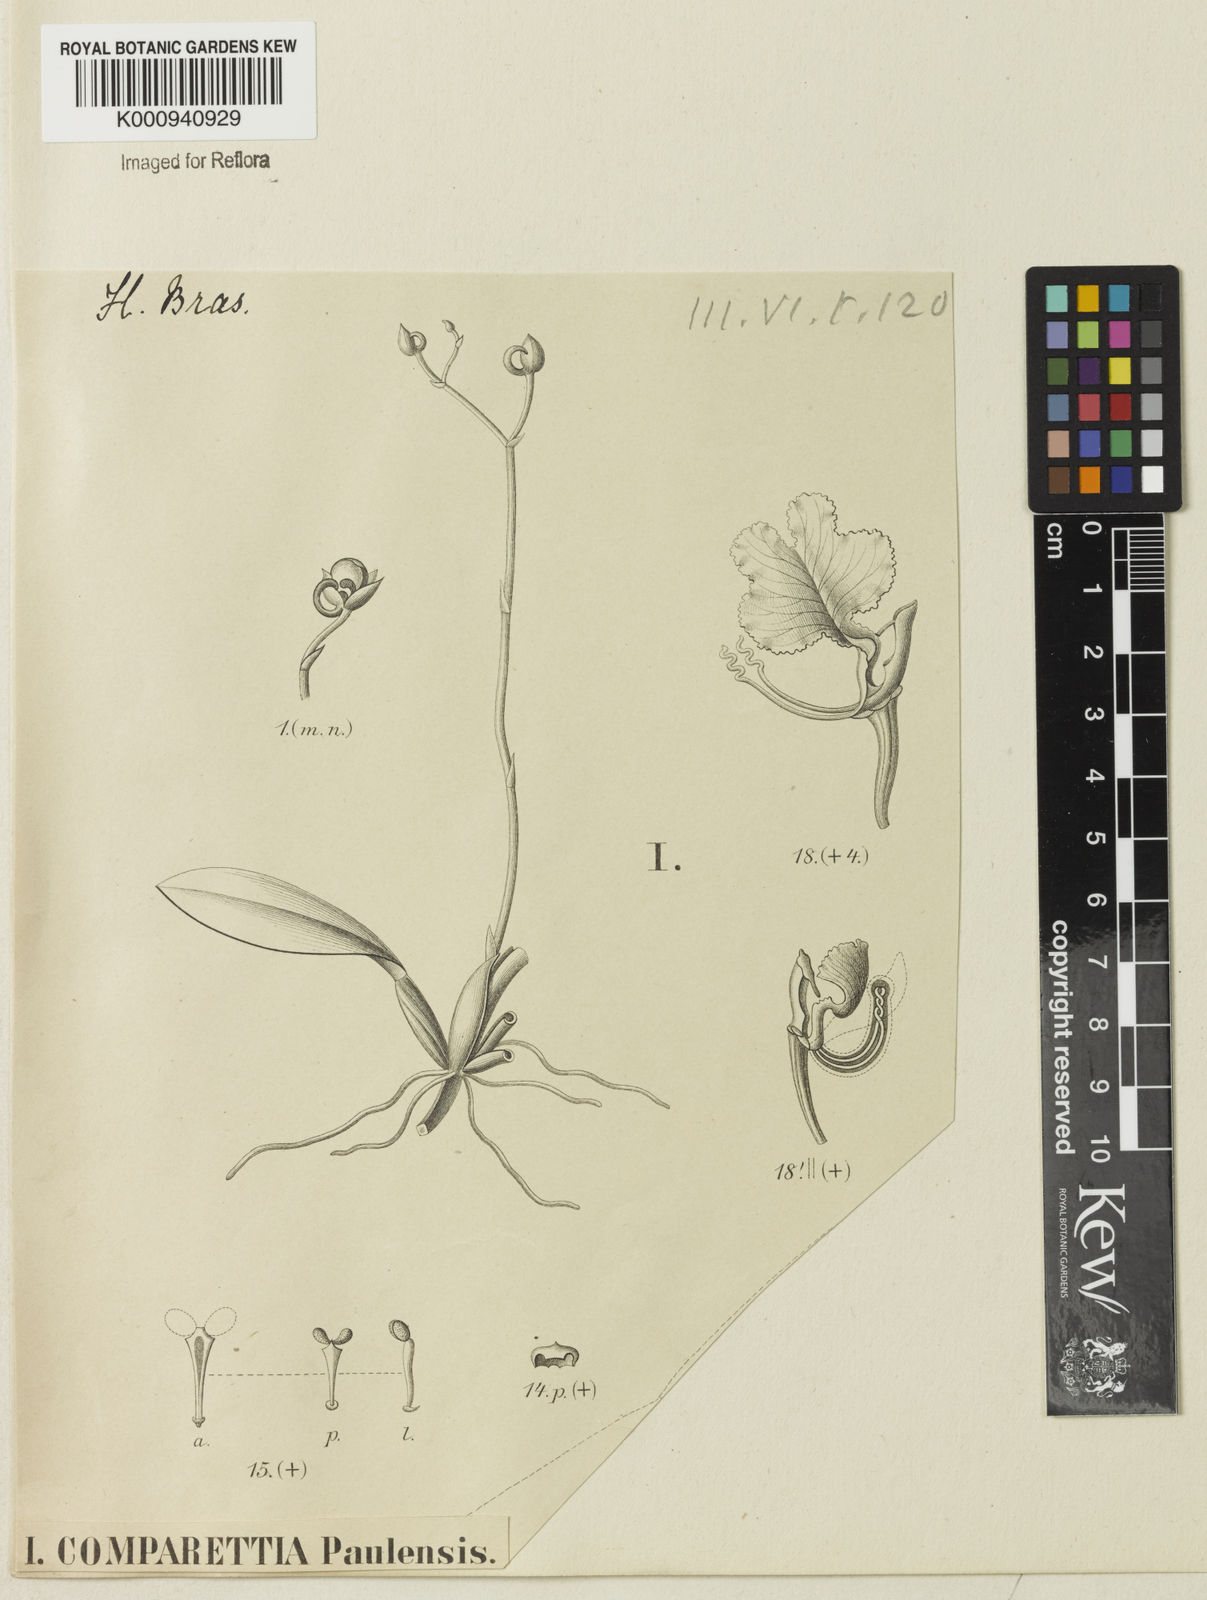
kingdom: Plantae
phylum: Tracheophyta
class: Liliopsida
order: Asparagales
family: Orchidaceae
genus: Comparettia
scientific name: Comparettia falcata
